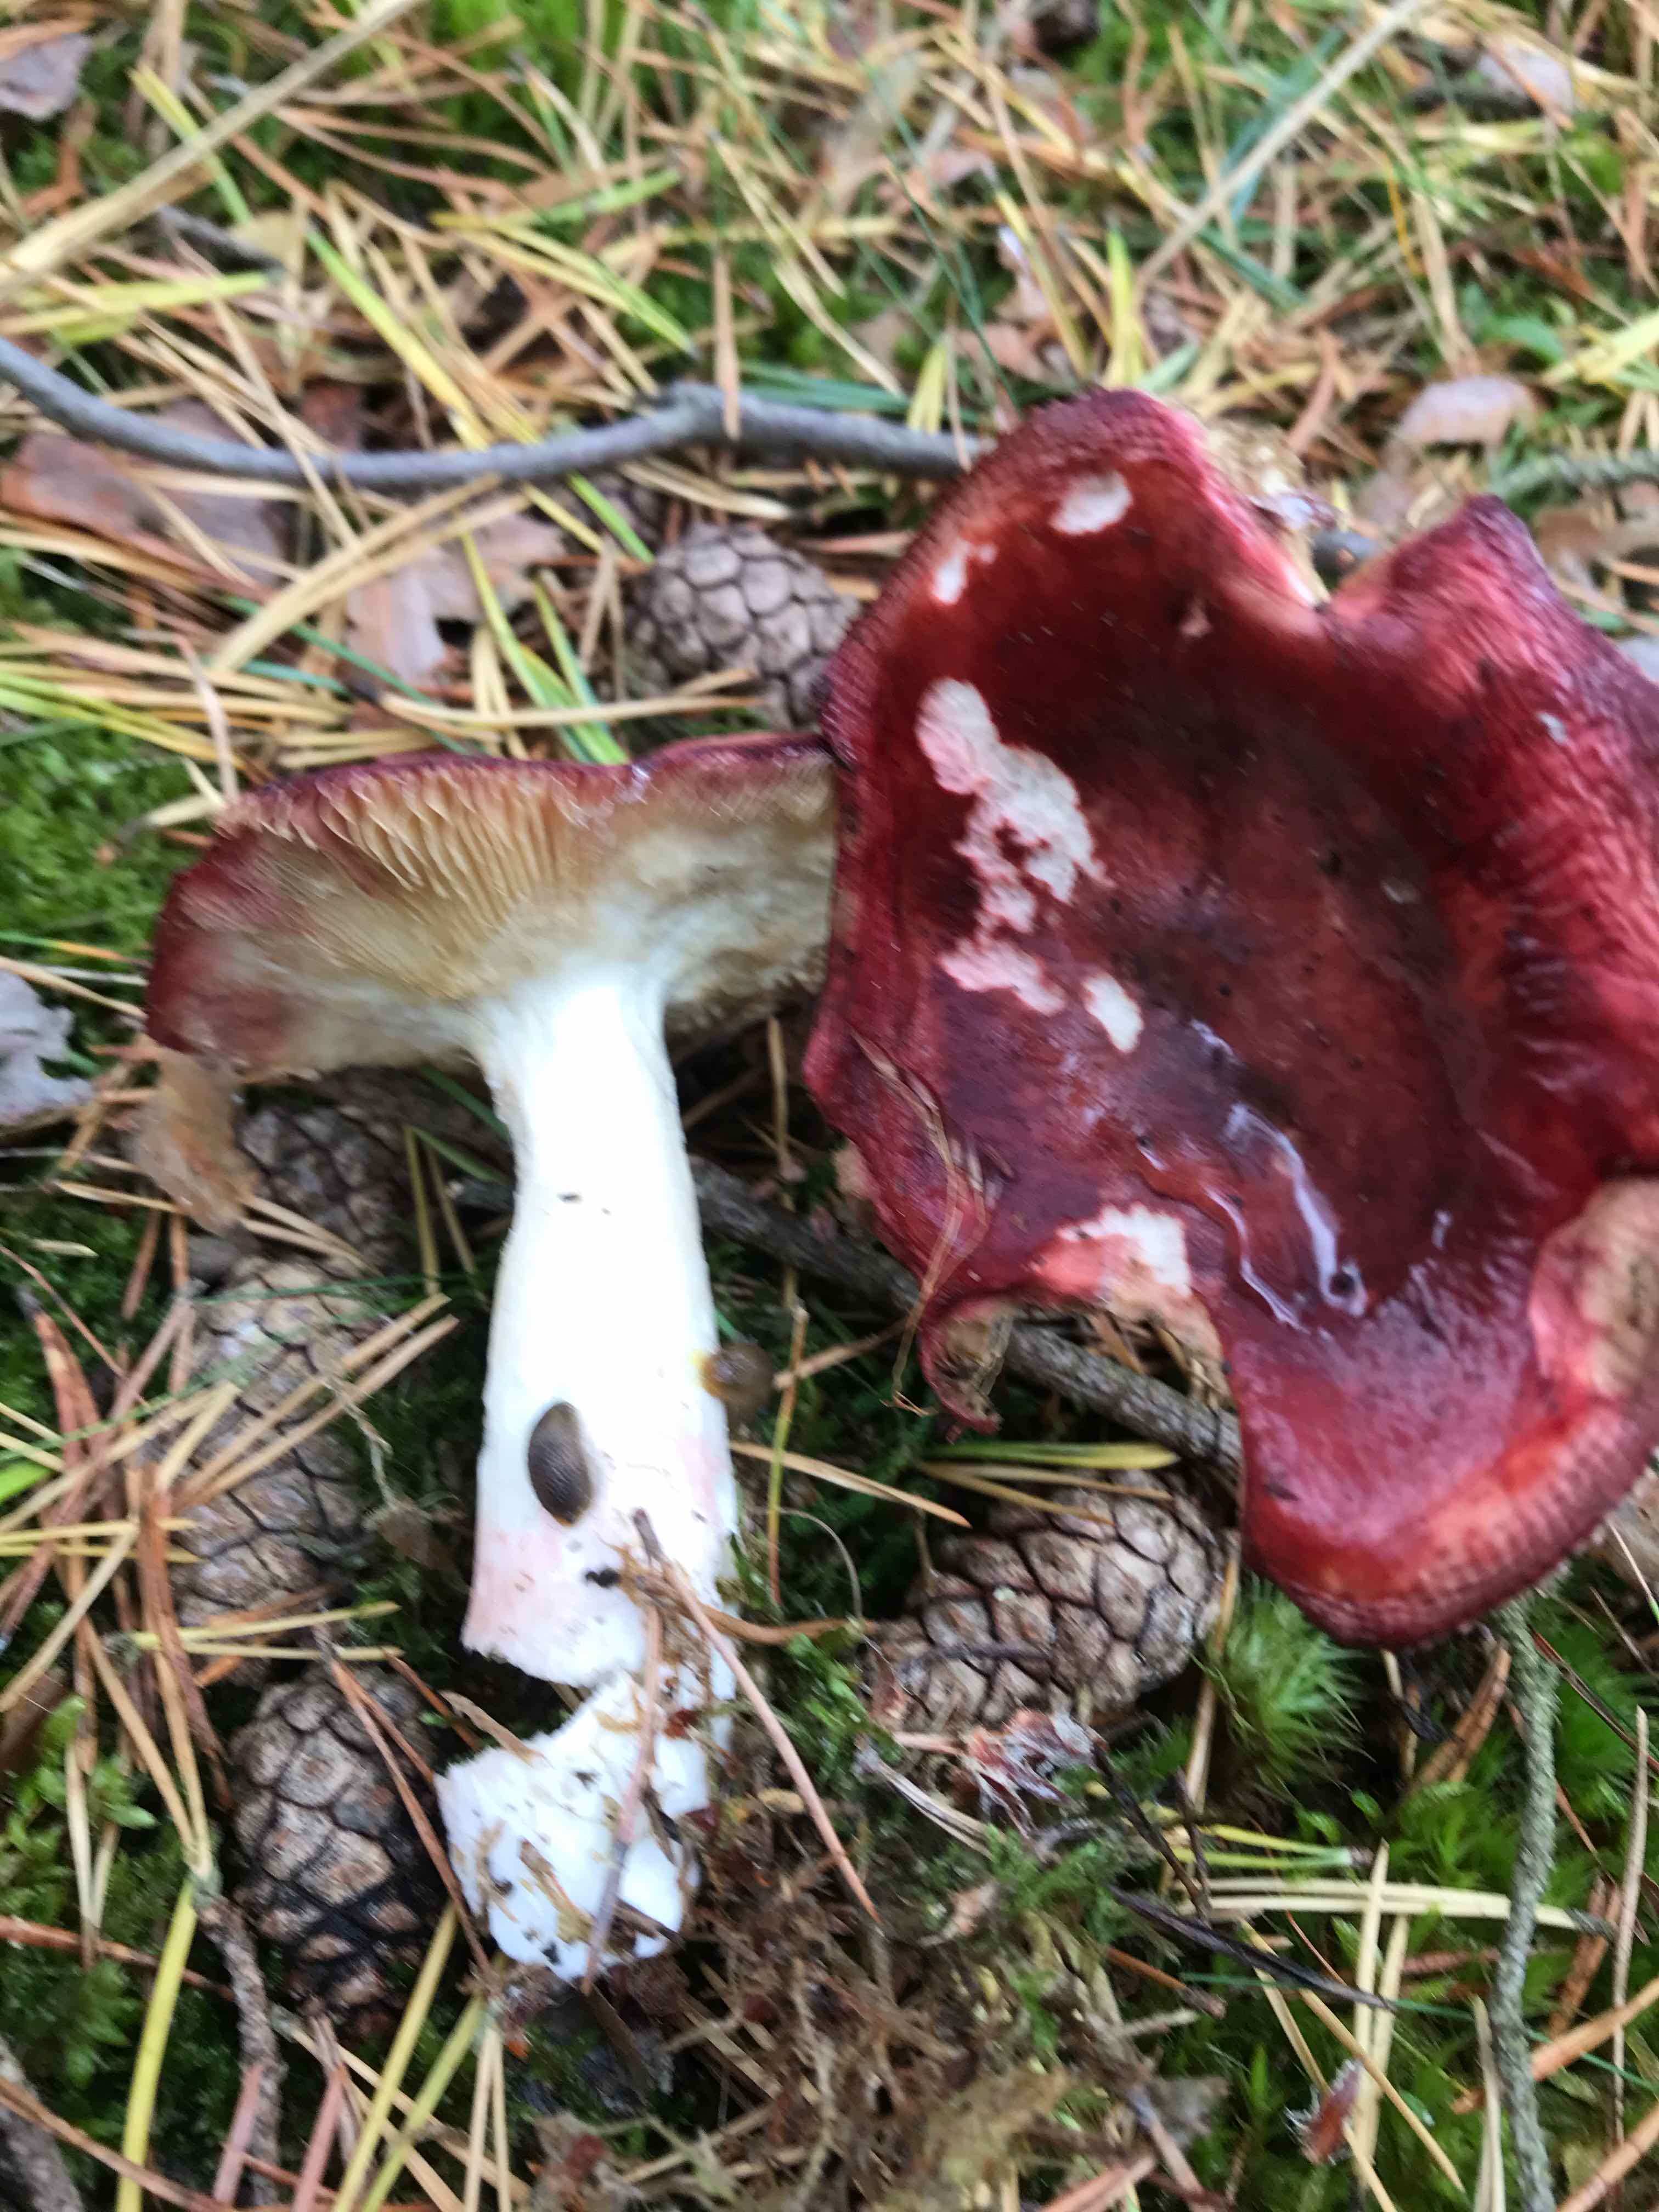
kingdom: Fungi
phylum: Basidiomycota
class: Agaricomycetes
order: Russulales
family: Russulaceae
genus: Russula
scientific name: Russula paludosa
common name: prægtig skørhat
